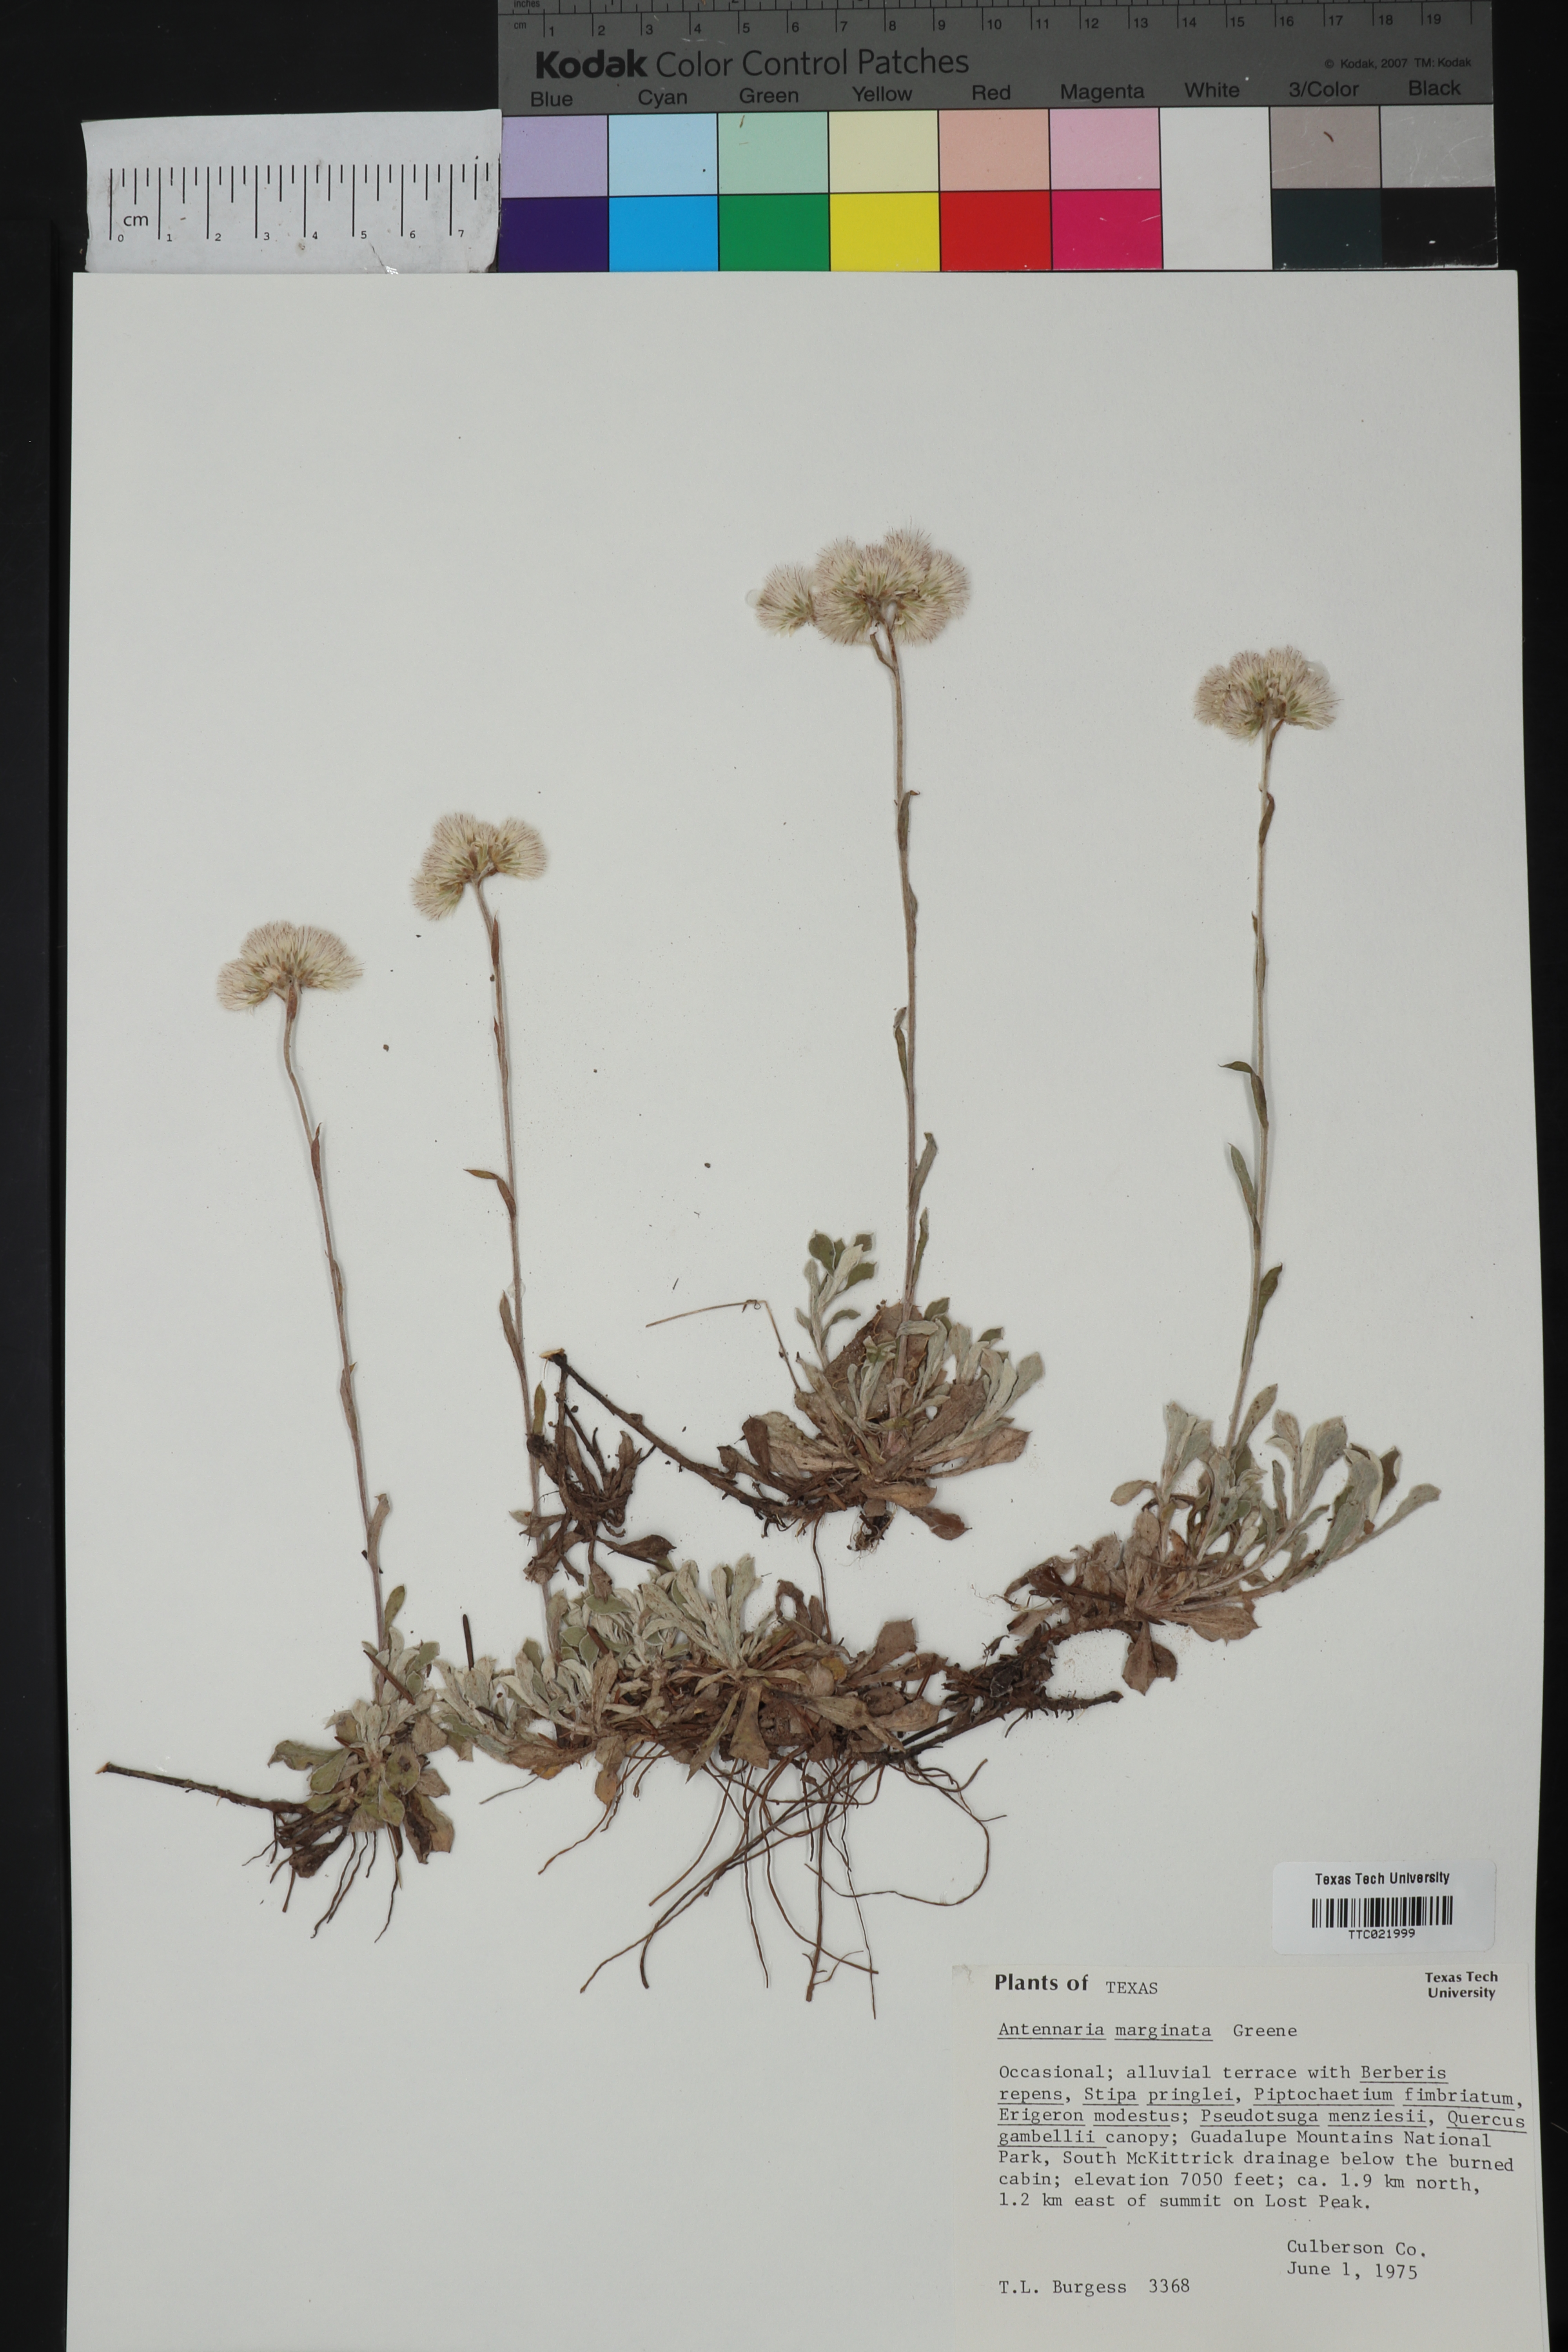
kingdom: Plantae
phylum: Tracheophyta
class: Magnoliopsida
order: Asterales
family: Asteraceae
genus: Antennaria
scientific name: Antennaria marginata
